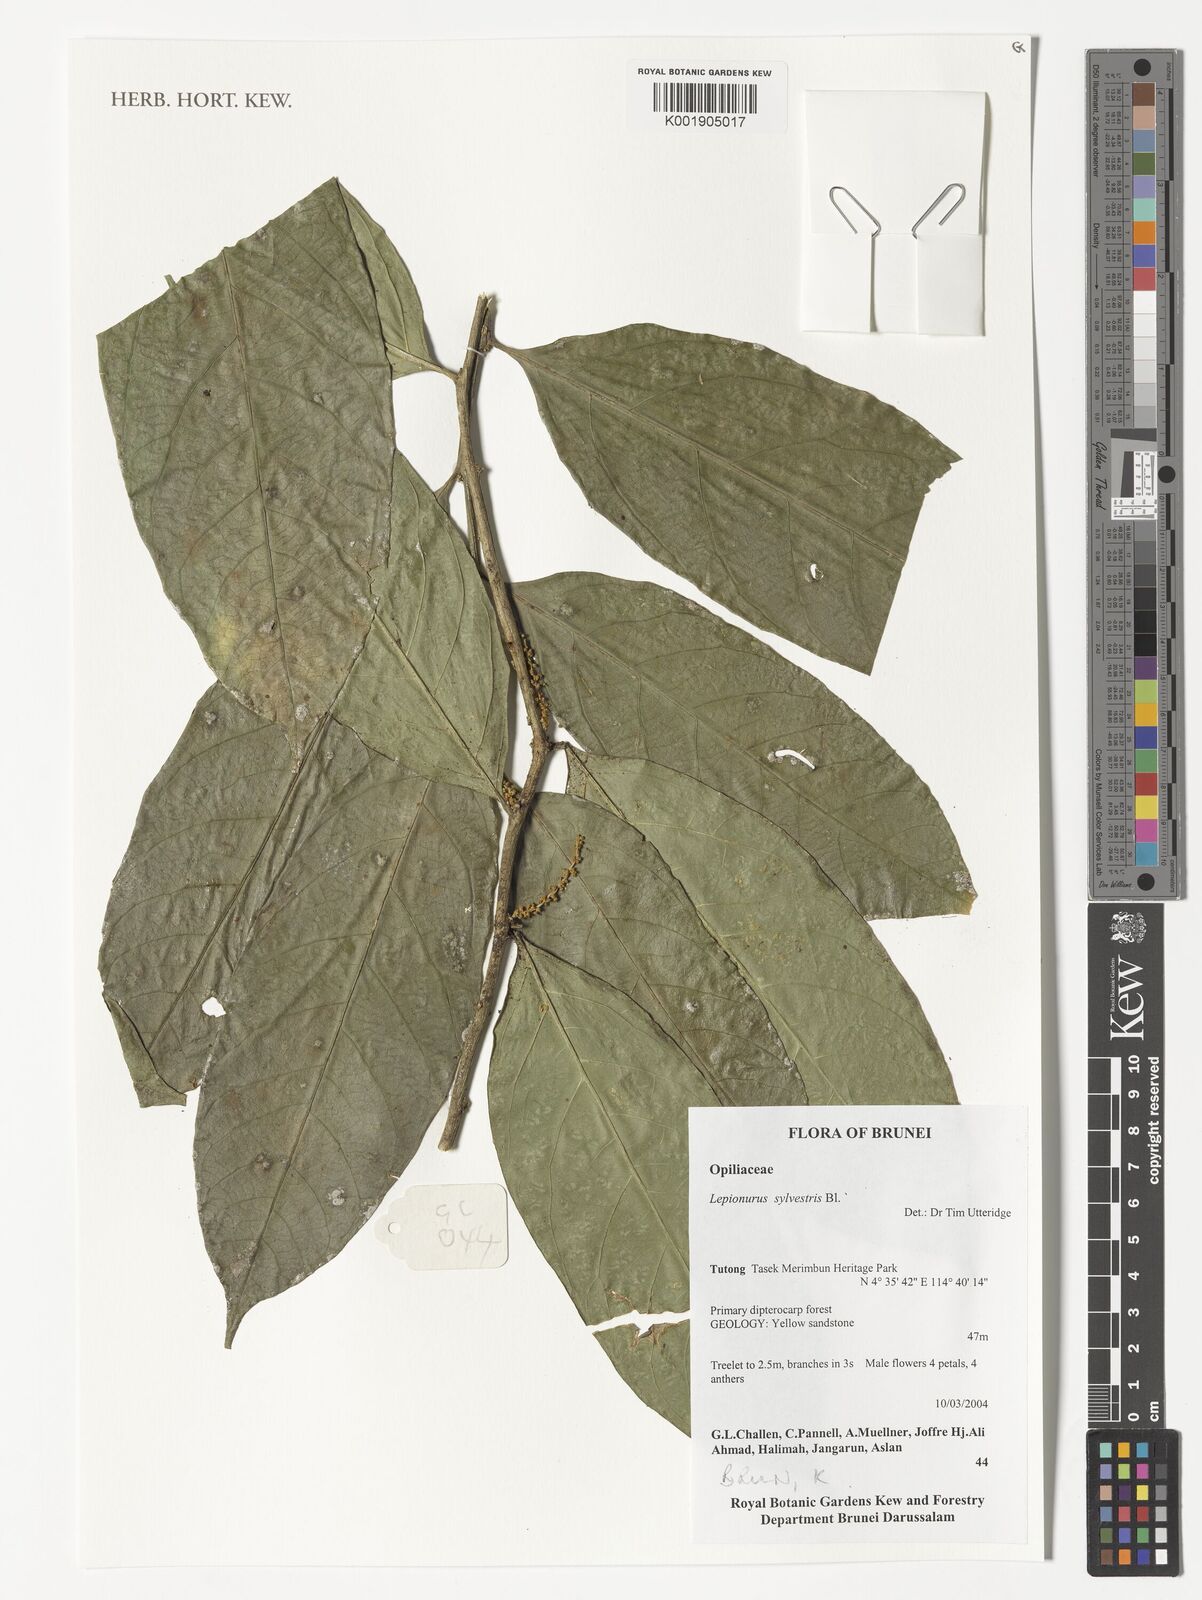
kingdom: Plantae
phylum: Tracheophyta
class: Magnoliopsida
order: Santalales
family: Opiliaceae
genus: Lepionurus
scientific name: Lepionurus sylvestris
